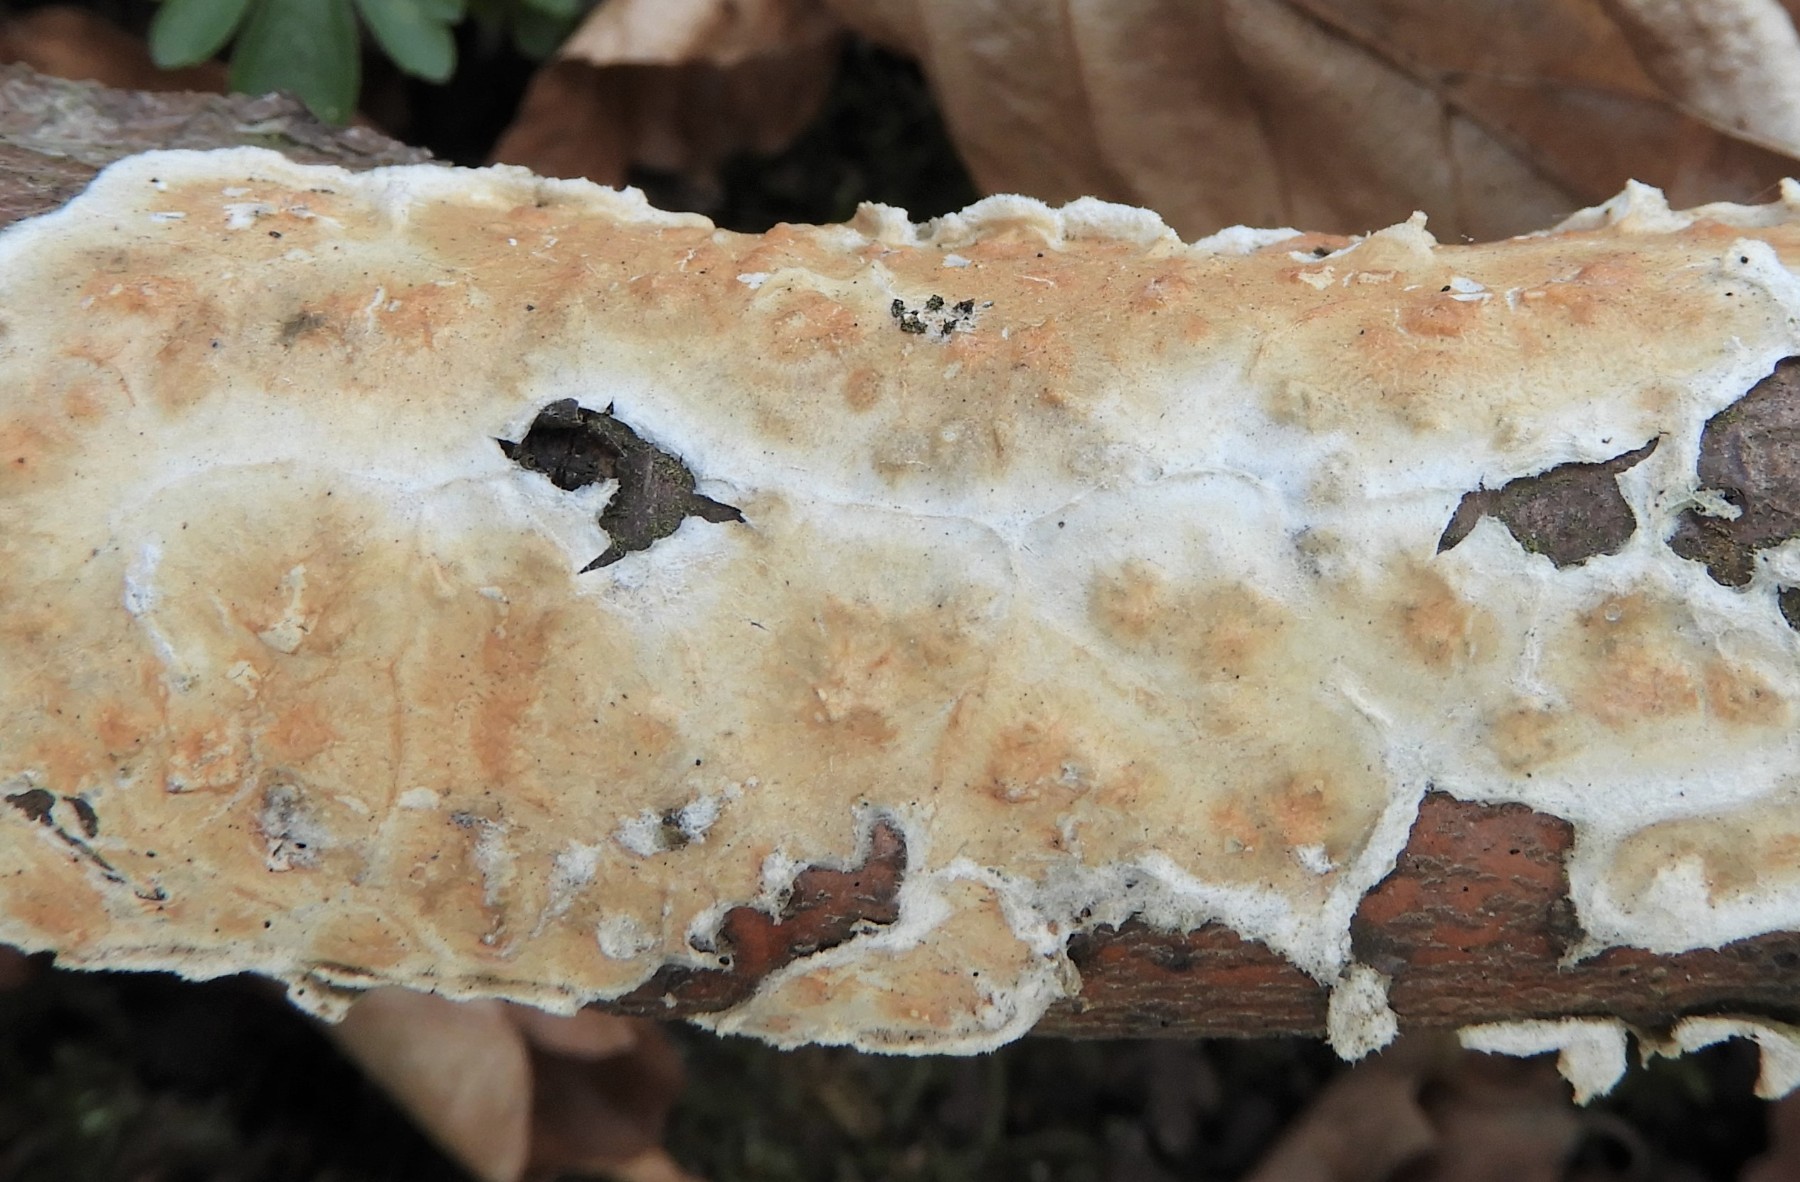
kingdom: Fungi
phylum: Basidiomycota
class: Agaricomycetes
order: Polyporales
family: Irpicaceae
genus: Byssomerulius
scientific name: Byssomerulius corium
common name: læder-åresvamp
